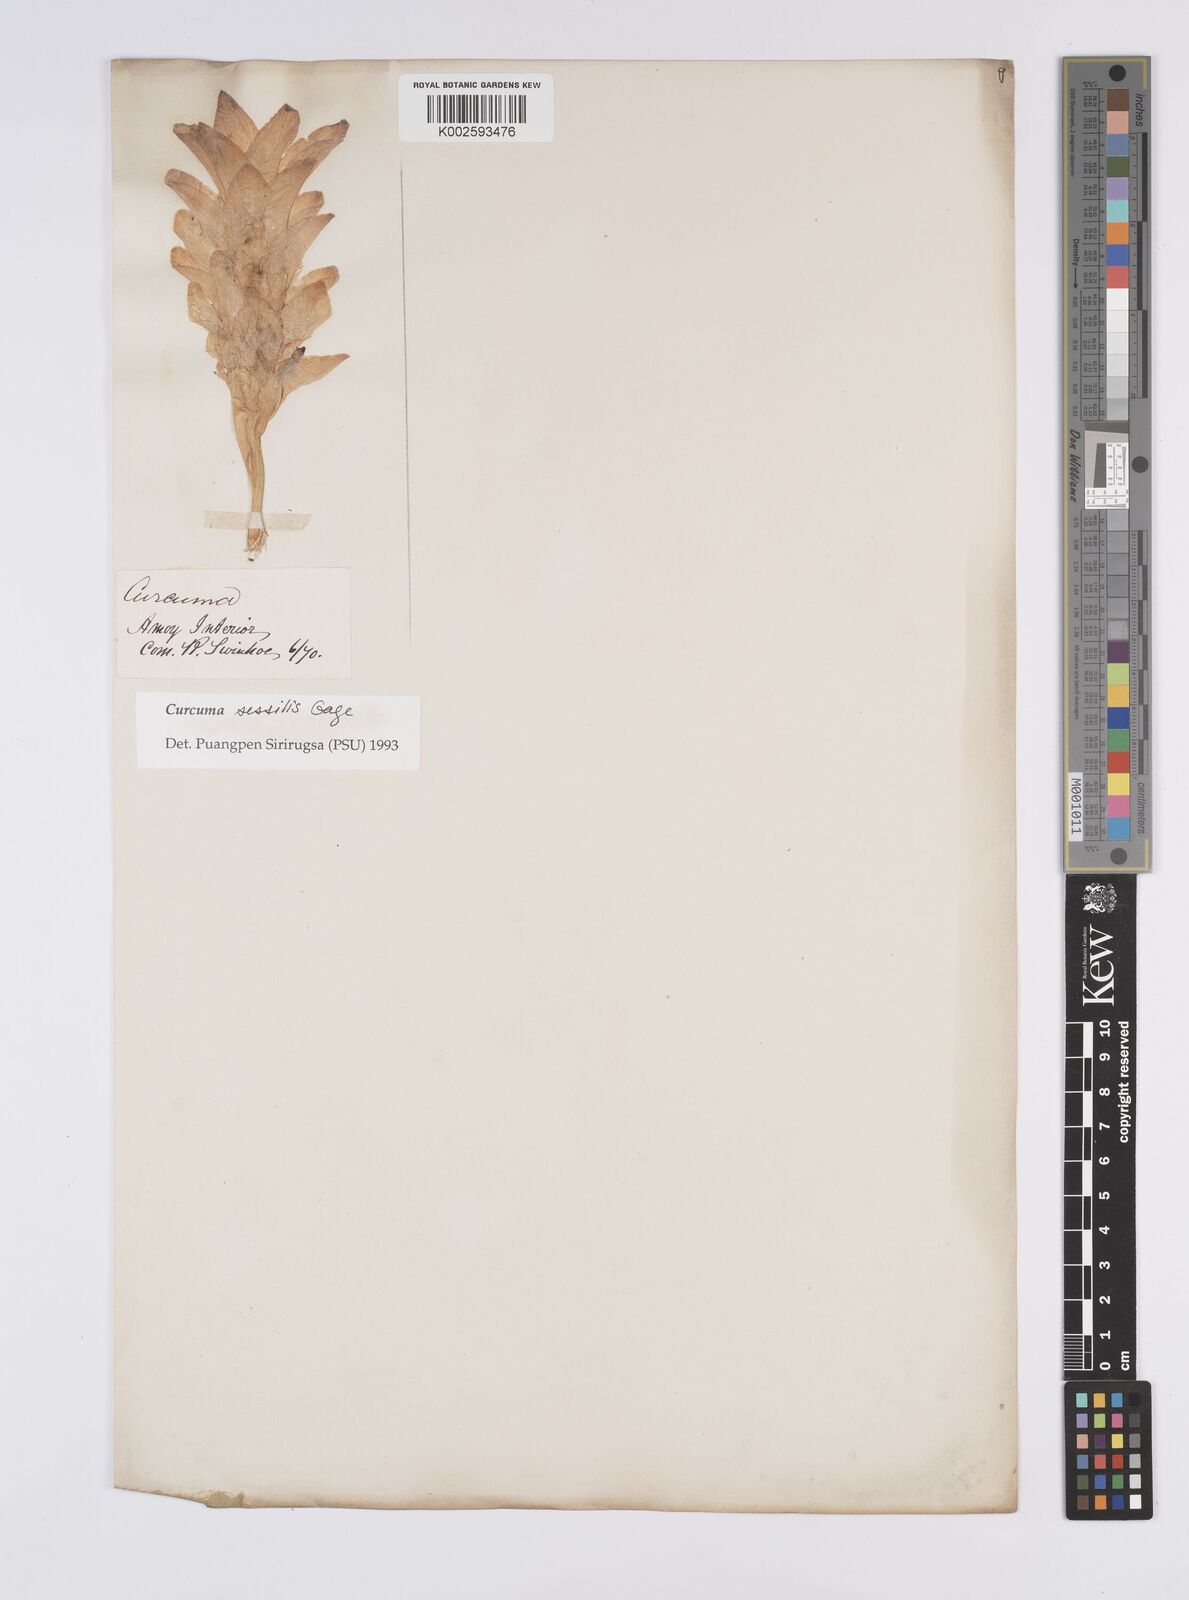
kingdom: Plantae
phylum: Tracheophyta
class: Liliopsida
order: Zingiberales
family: Zingiberaceae
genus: Curcuma
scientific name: Curcuma sessilis
